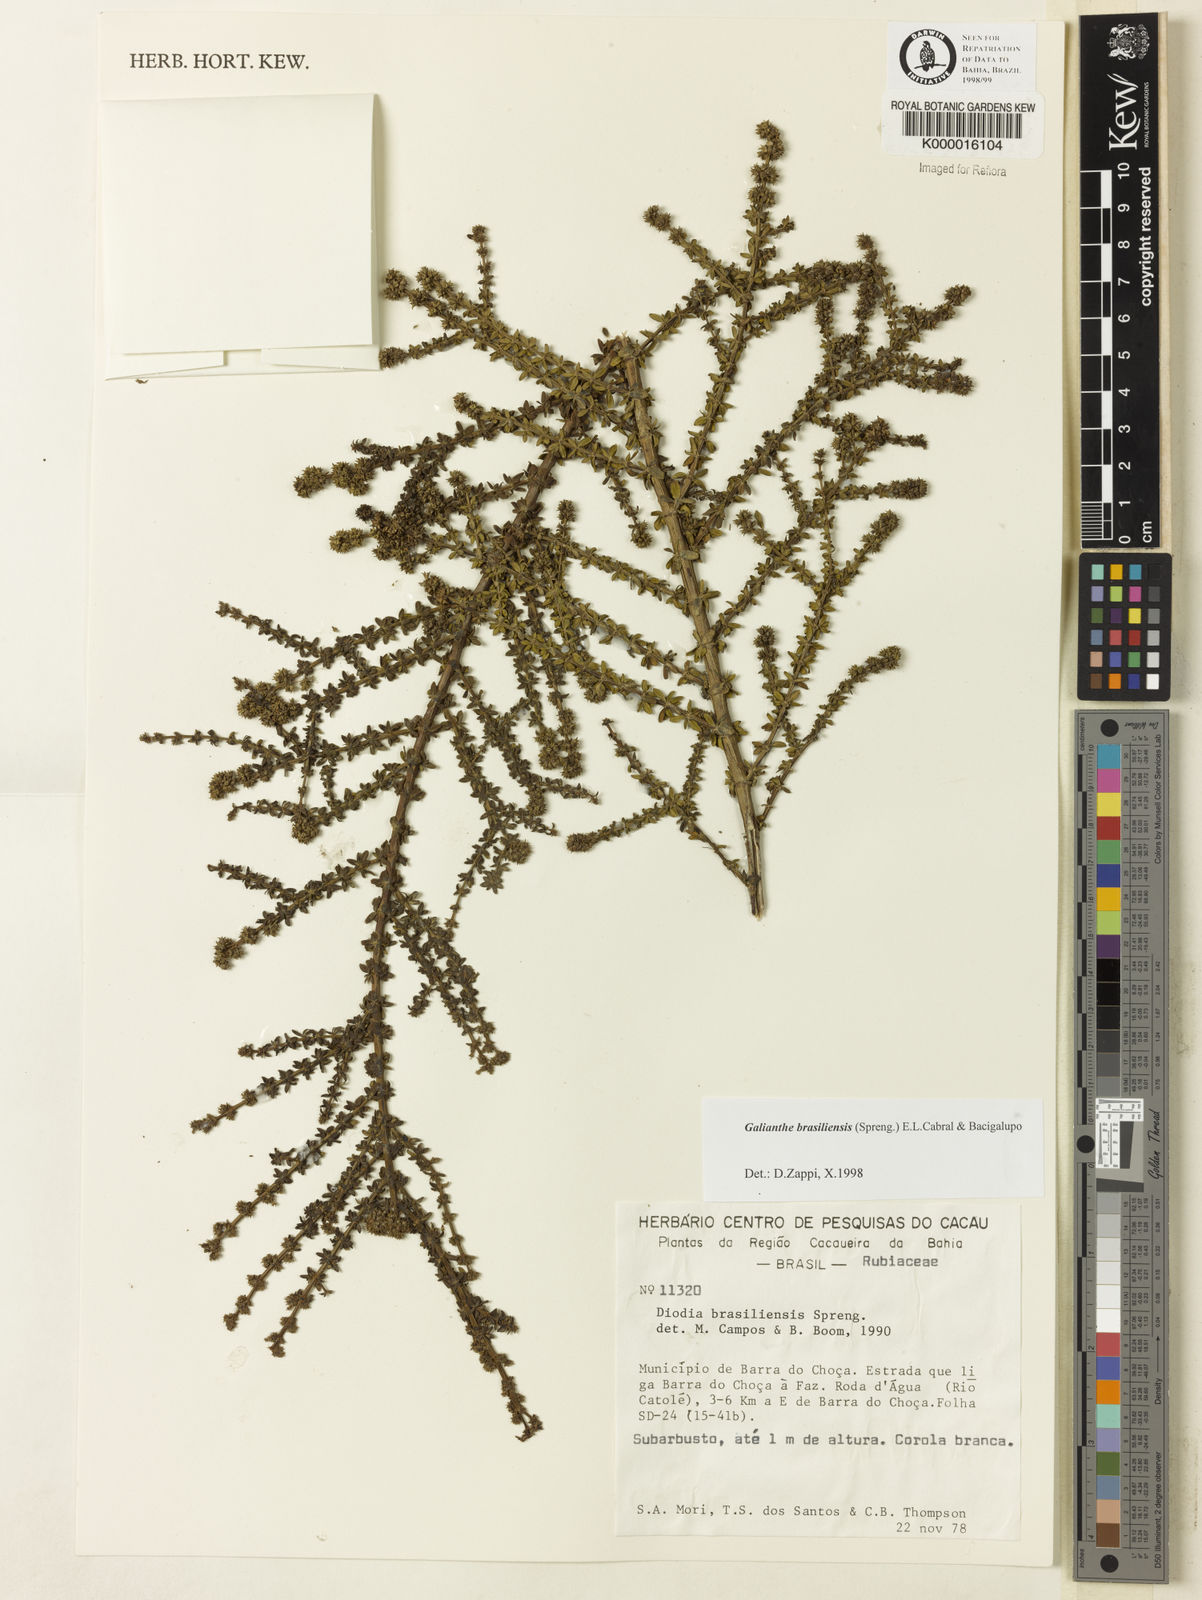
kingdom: Plantae
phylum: Tracheophyta
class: Magnoliopsida
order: Gentianales
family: Rubiaceae
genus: Galianthe
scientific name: Galianthe brasiliensis
